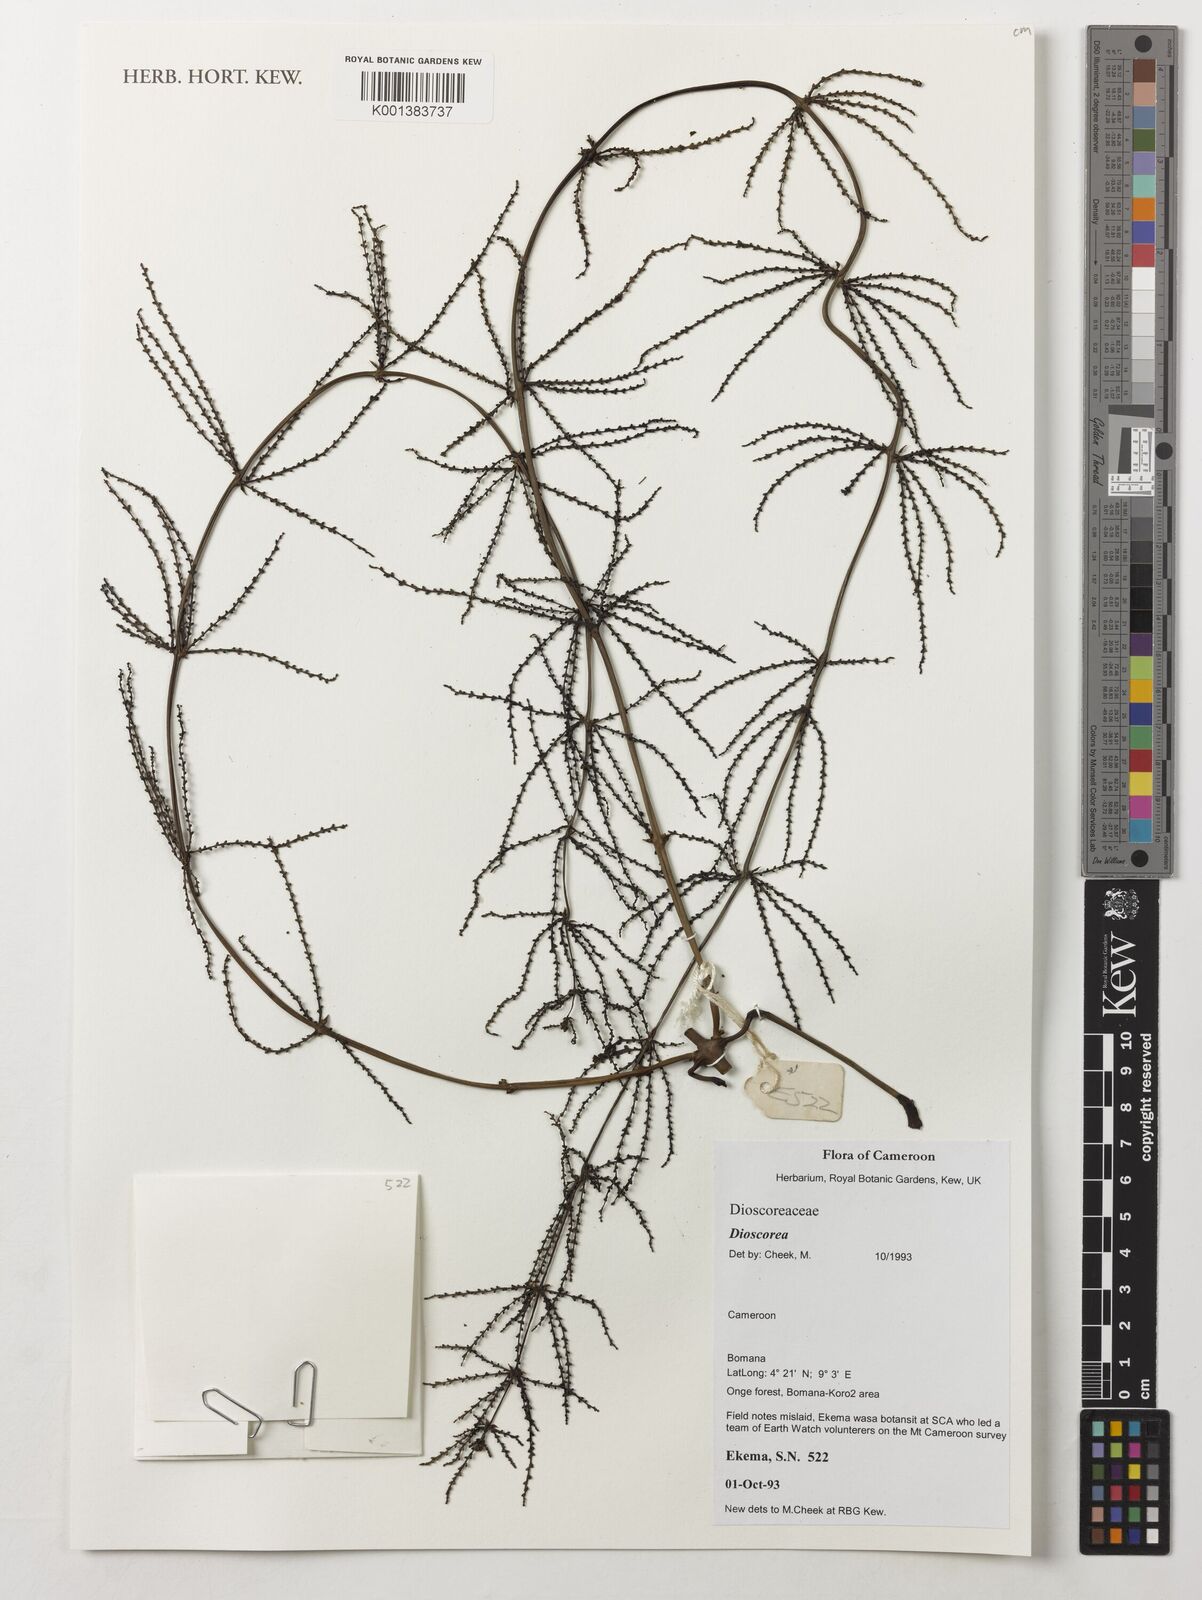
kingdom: Plantae
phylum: Tracheophyta
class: Liliopsida
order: Dioscoreales
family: Dioscoreaceae
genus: Dioscorea
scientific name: Dioscorea
